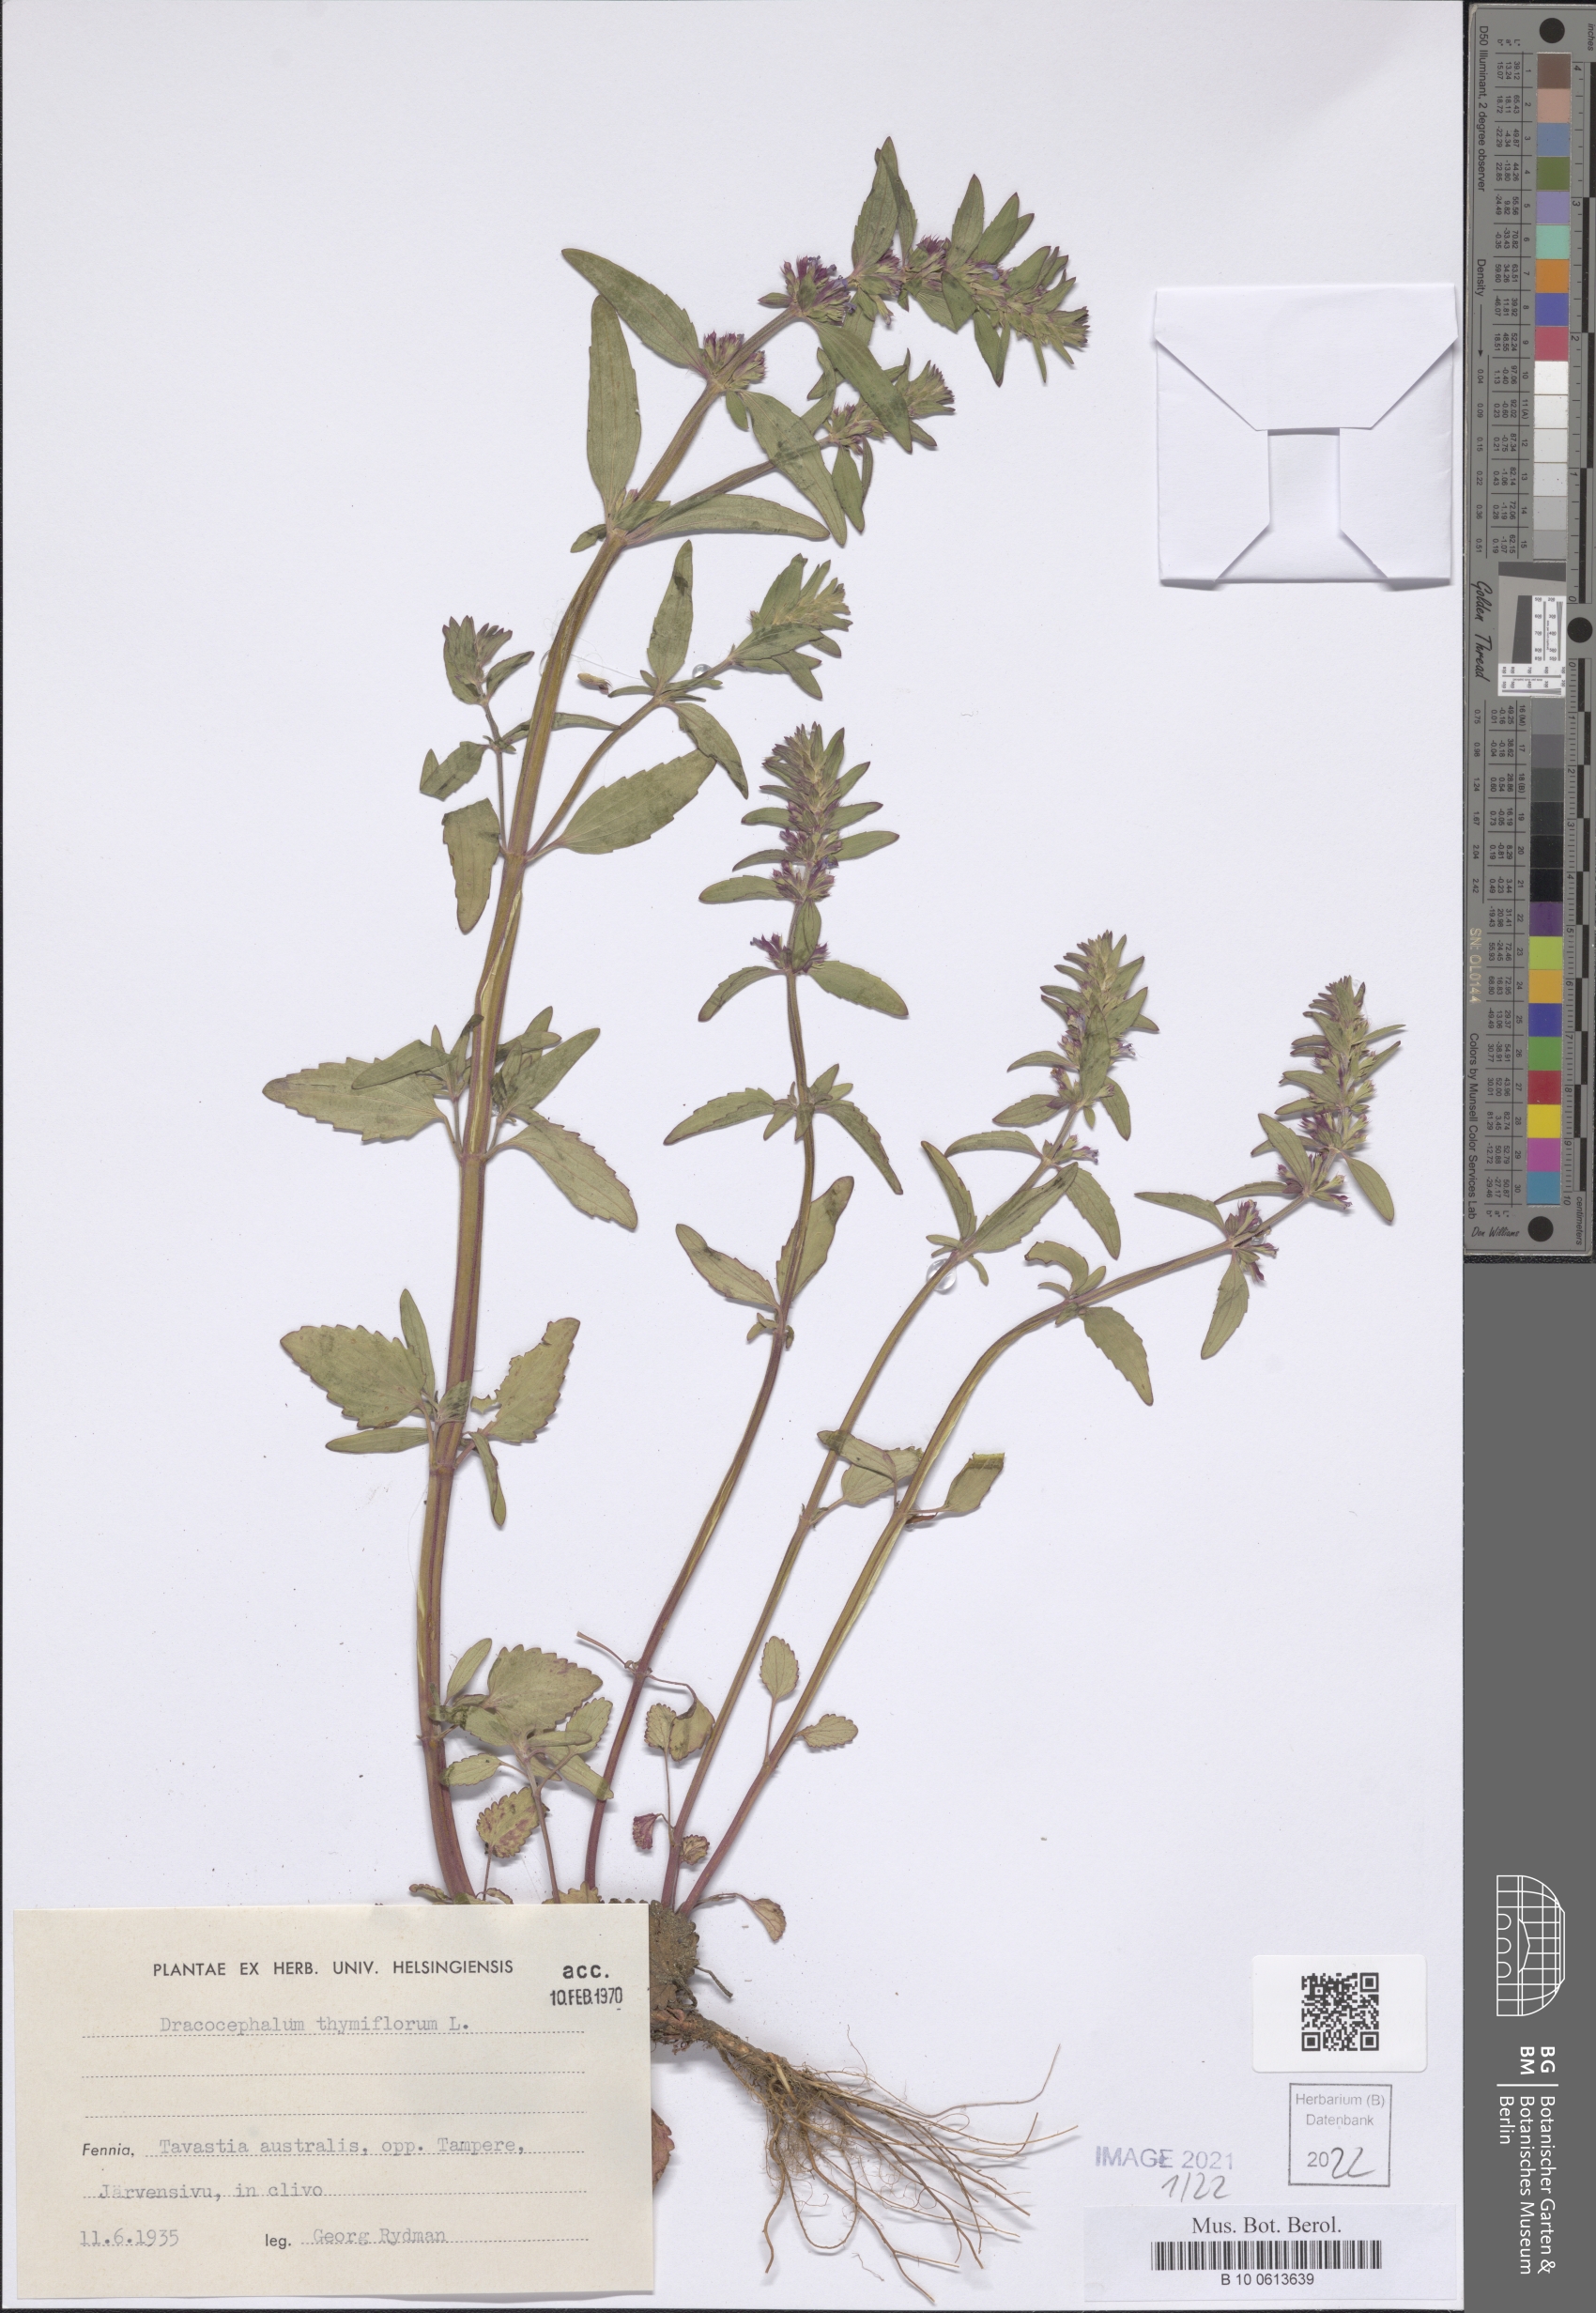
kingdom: Plantae
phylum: Tracheophyta
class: Magnoliopsida
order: Lamiales
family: Lamiaceae
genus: Dracocephalum
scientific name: Dracocephalum thymiflorum
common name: Thymeleaf dragonhead
